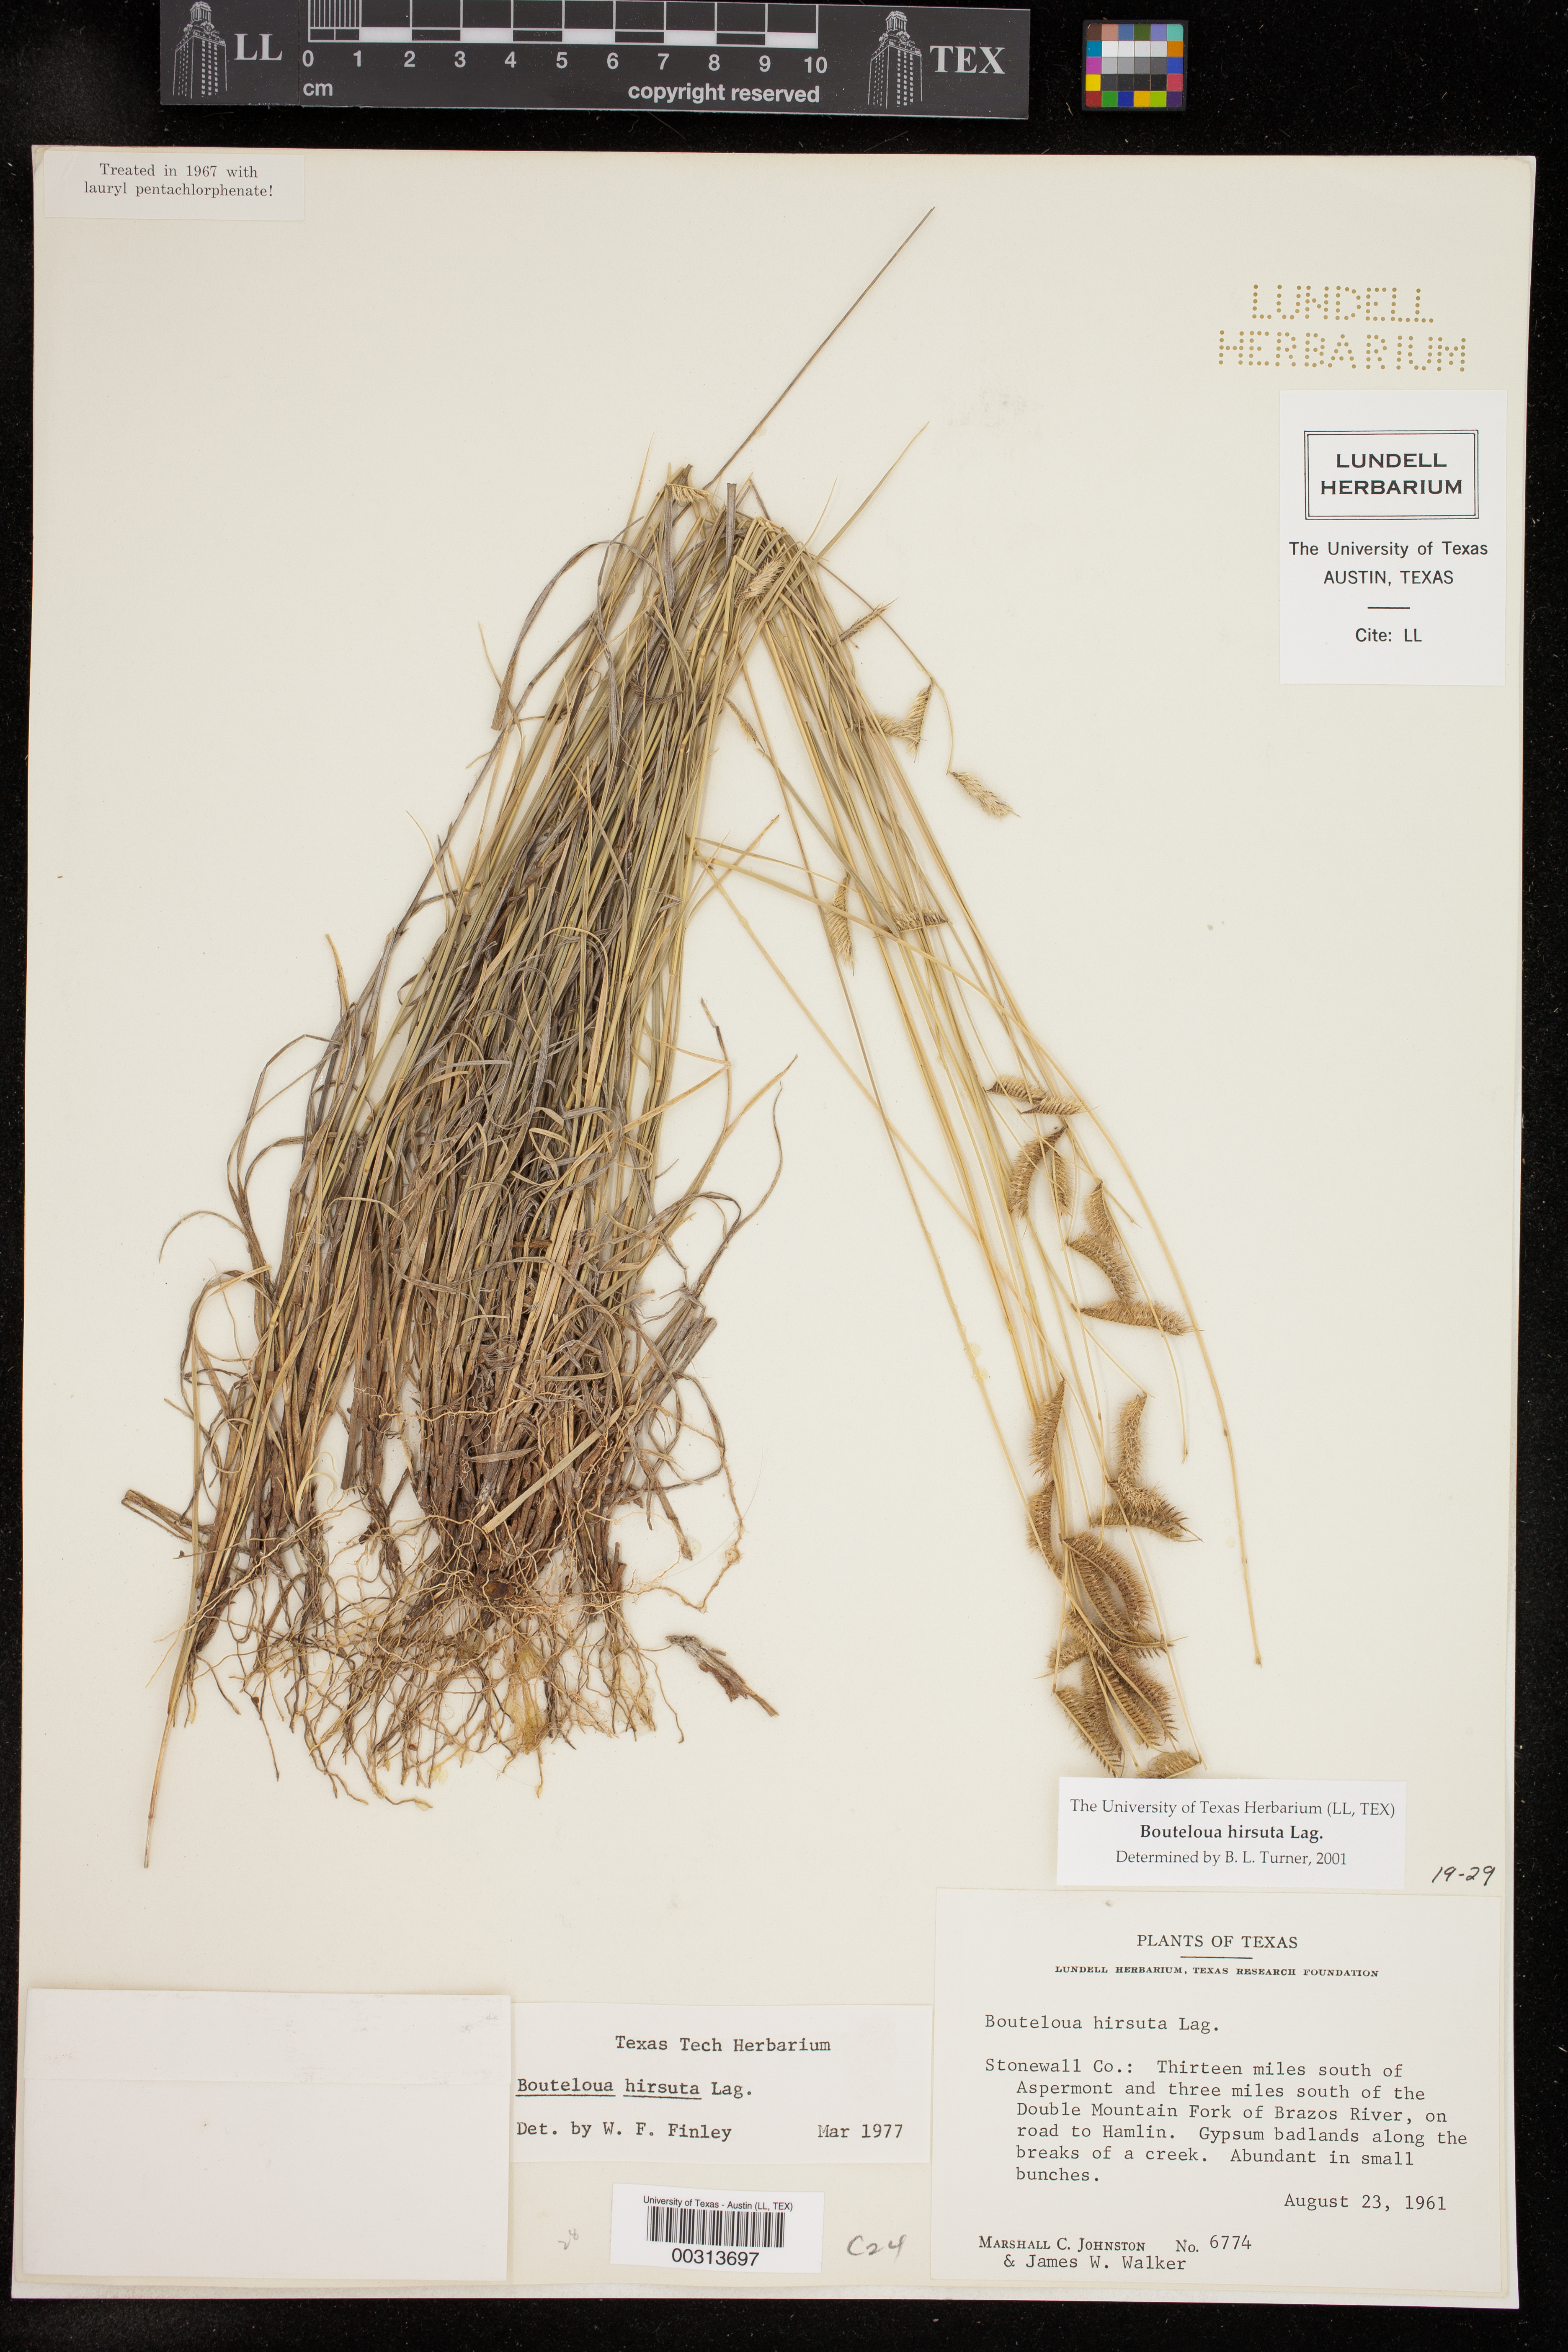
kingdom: Plantae
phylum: Tracheophyta
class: Liliopsida
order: Poales
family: Poaceae
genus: Bouteloua
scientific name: Bouteloua hirsuta
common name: Hairy grama
